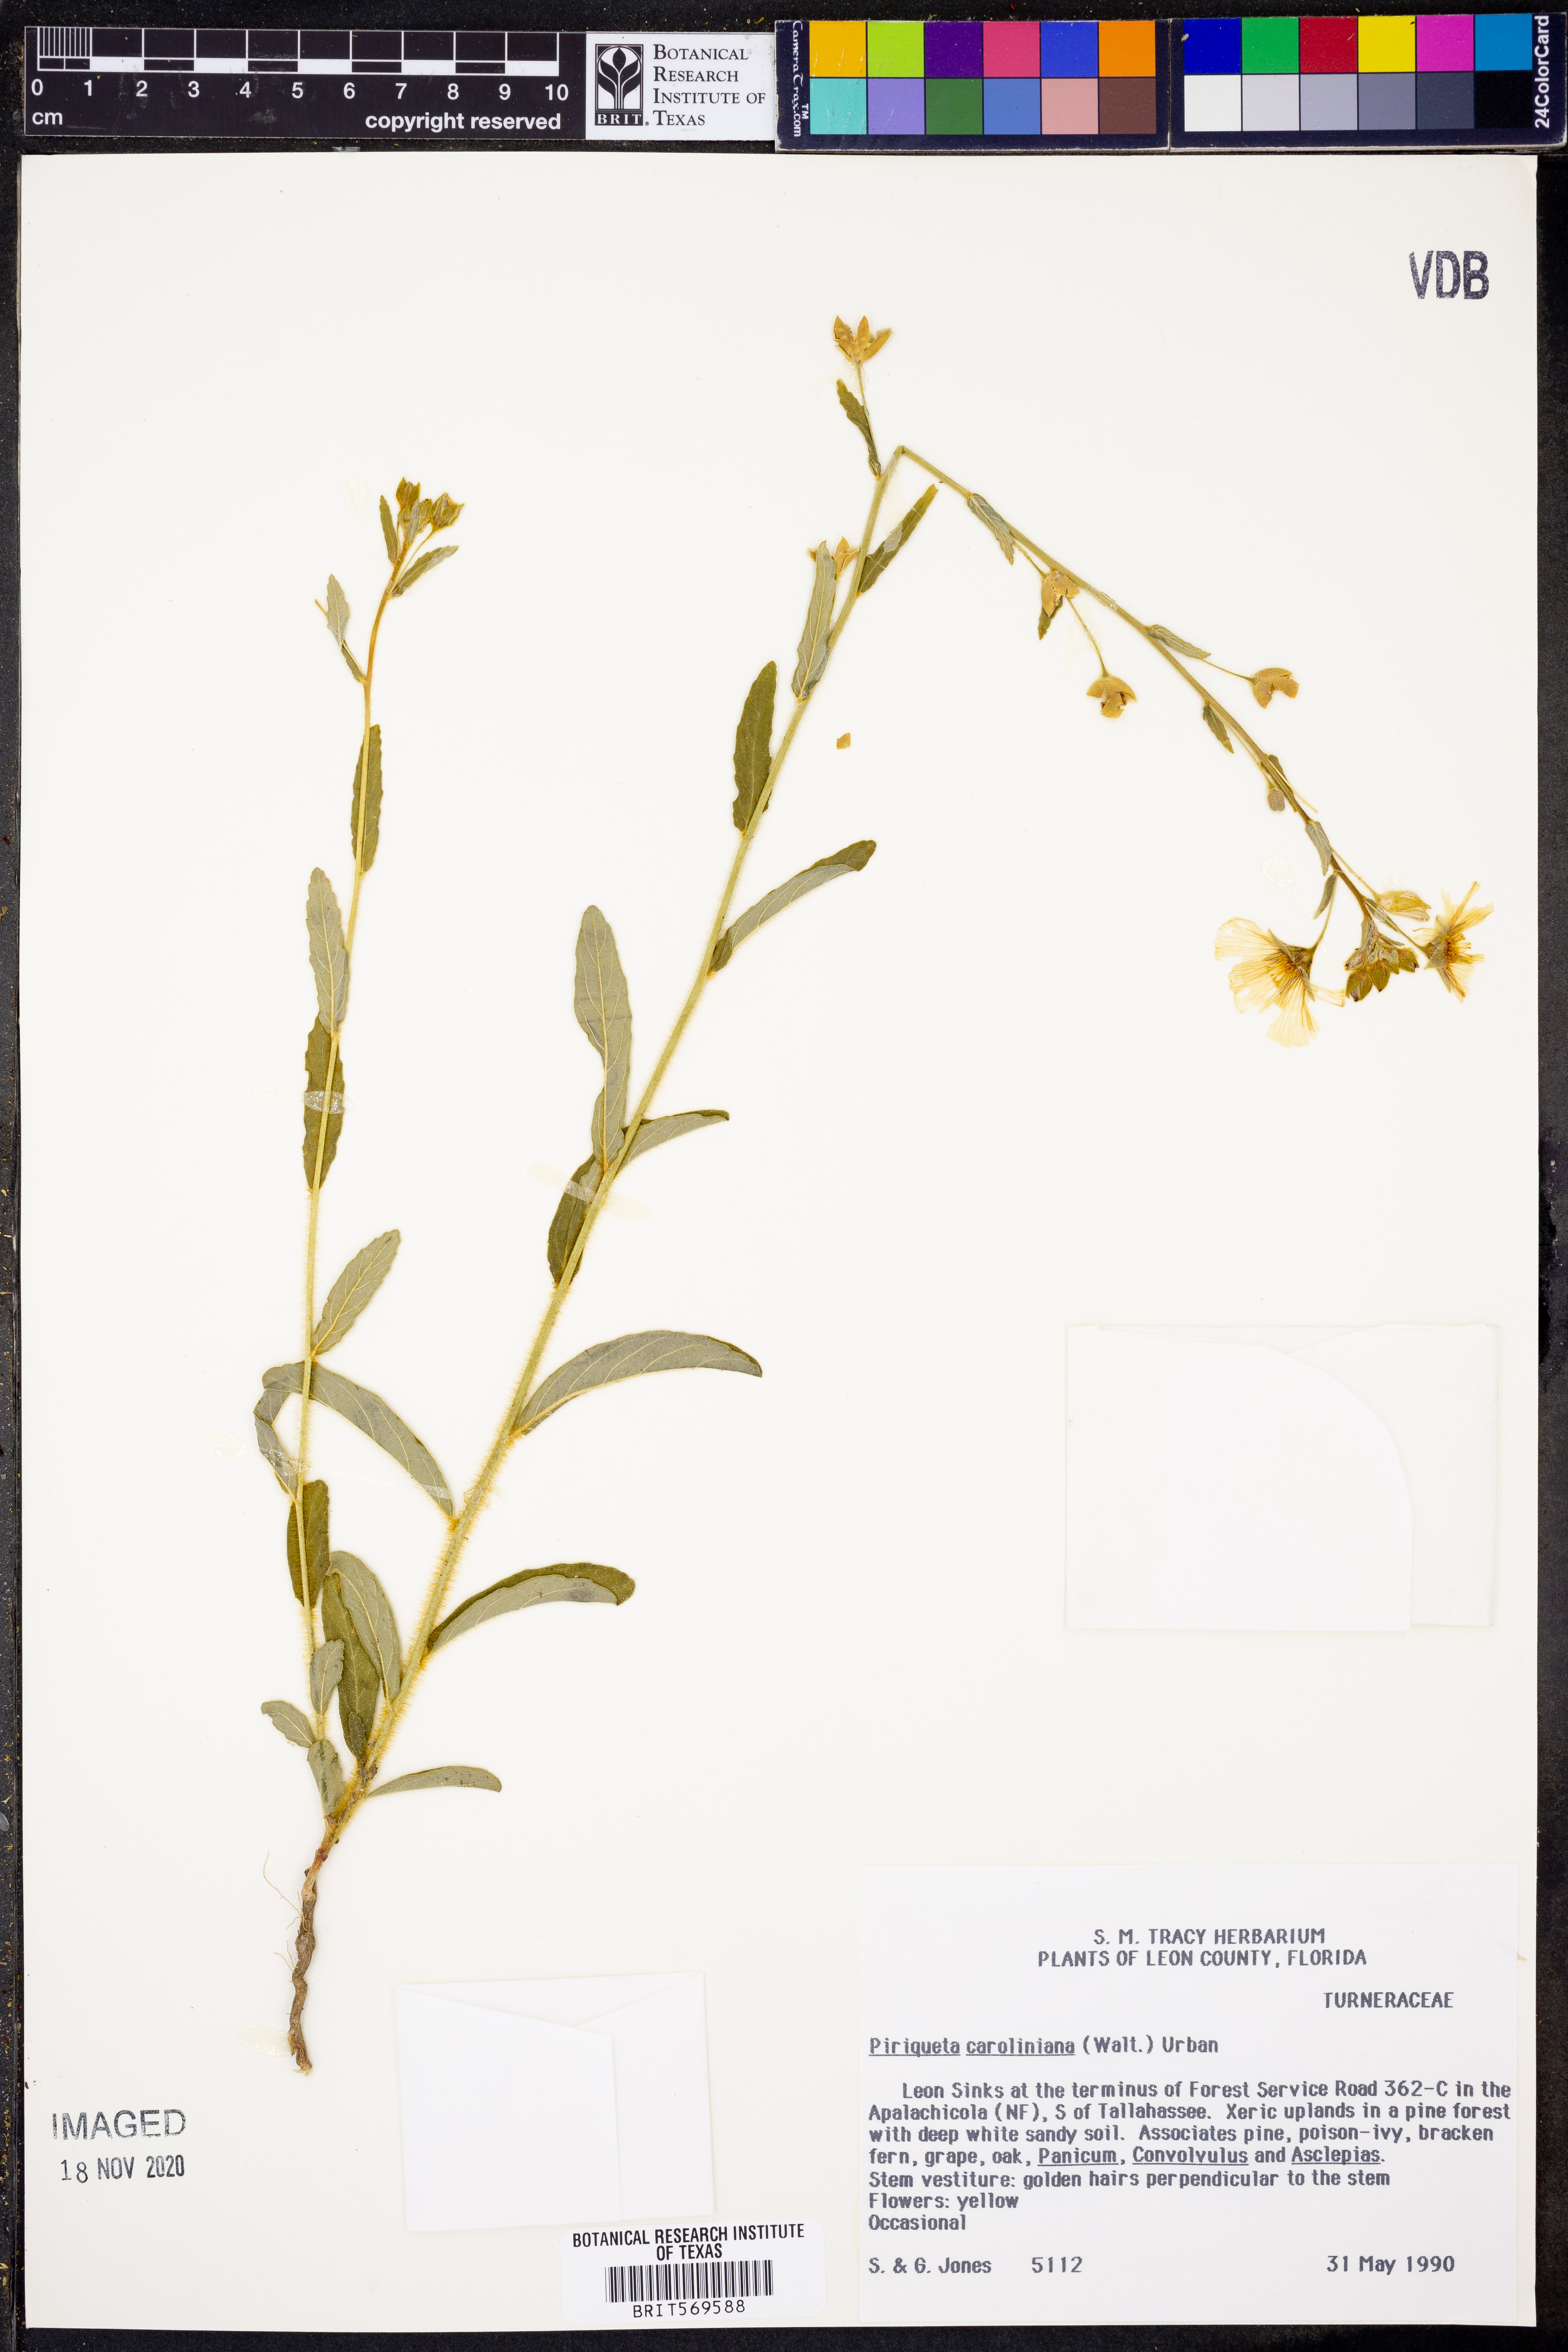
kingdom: Plantae
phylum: Tracheophyta
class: Magnoliopsida
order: Malpighiales
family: Turneraceae
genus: Piriqueta
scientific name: Piriqueta cistoides
